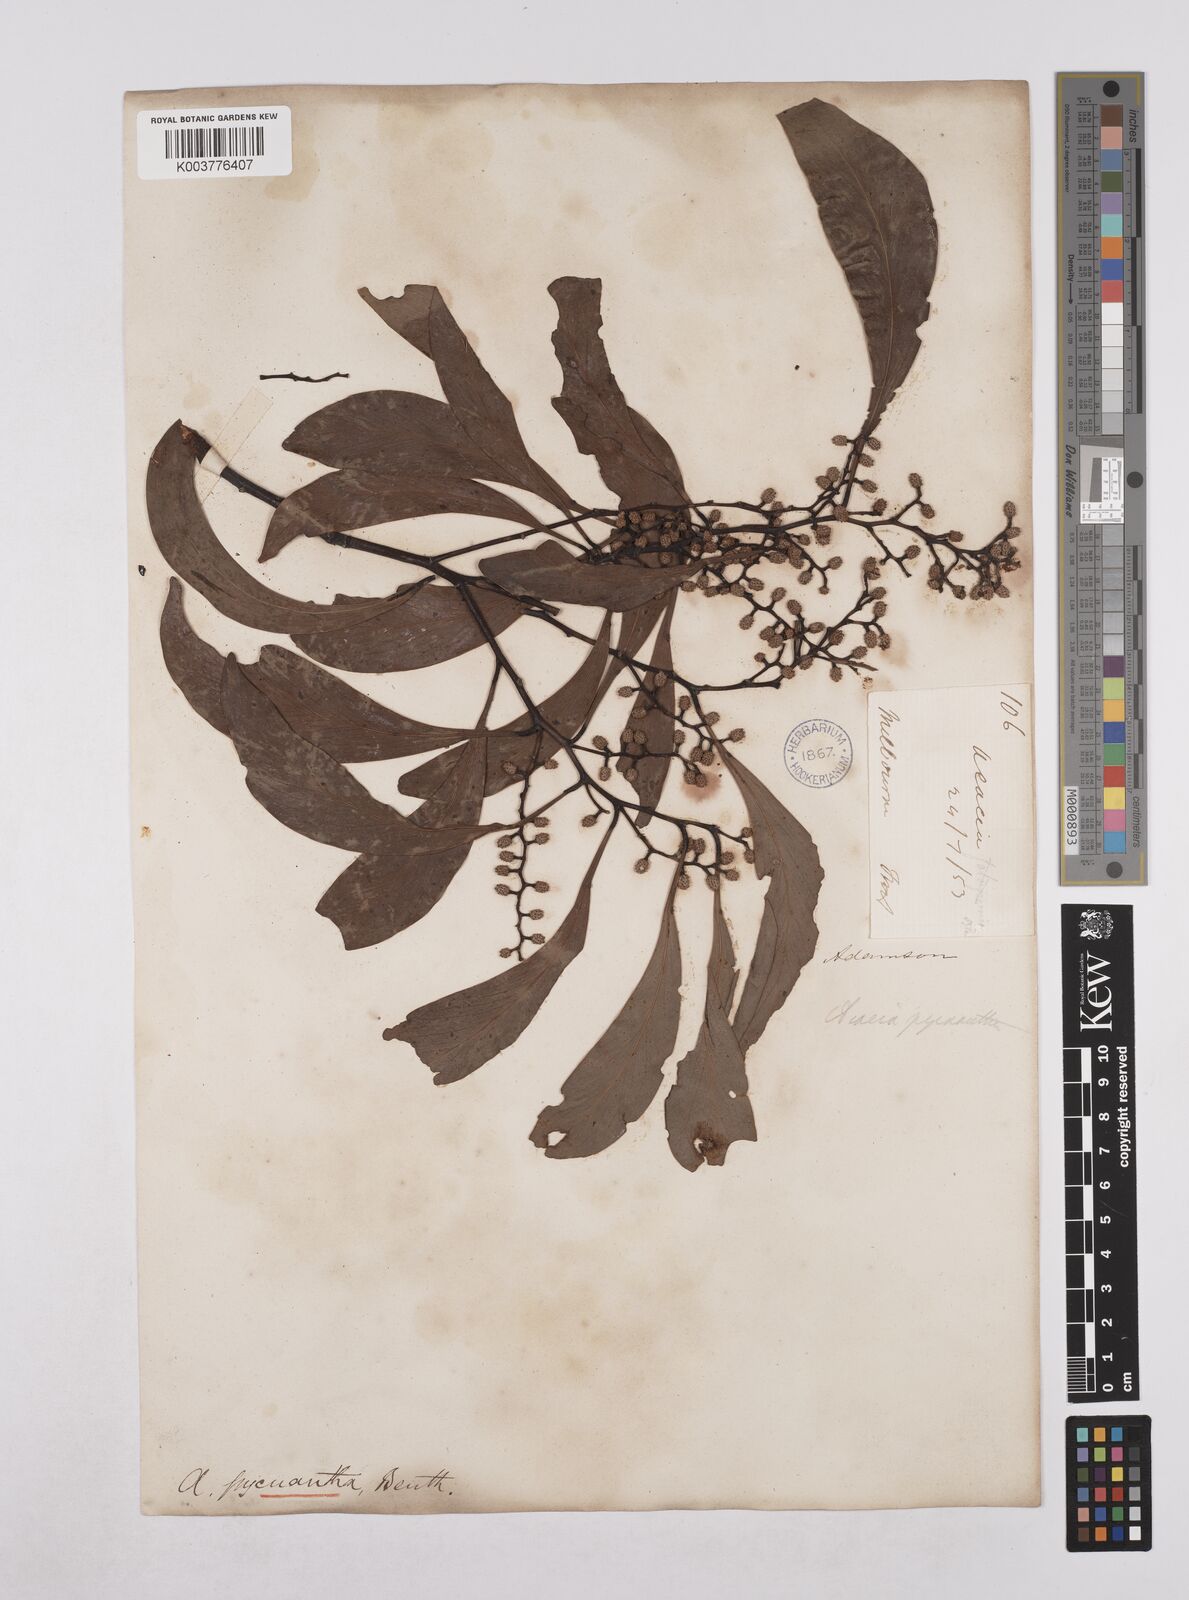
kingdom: Plantae
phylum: Tracheophyta
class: Magnoliopsida
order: Fabales
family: Fabaceae
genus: Acacia
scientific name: Acacia pycnantha
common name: Golden wattle
